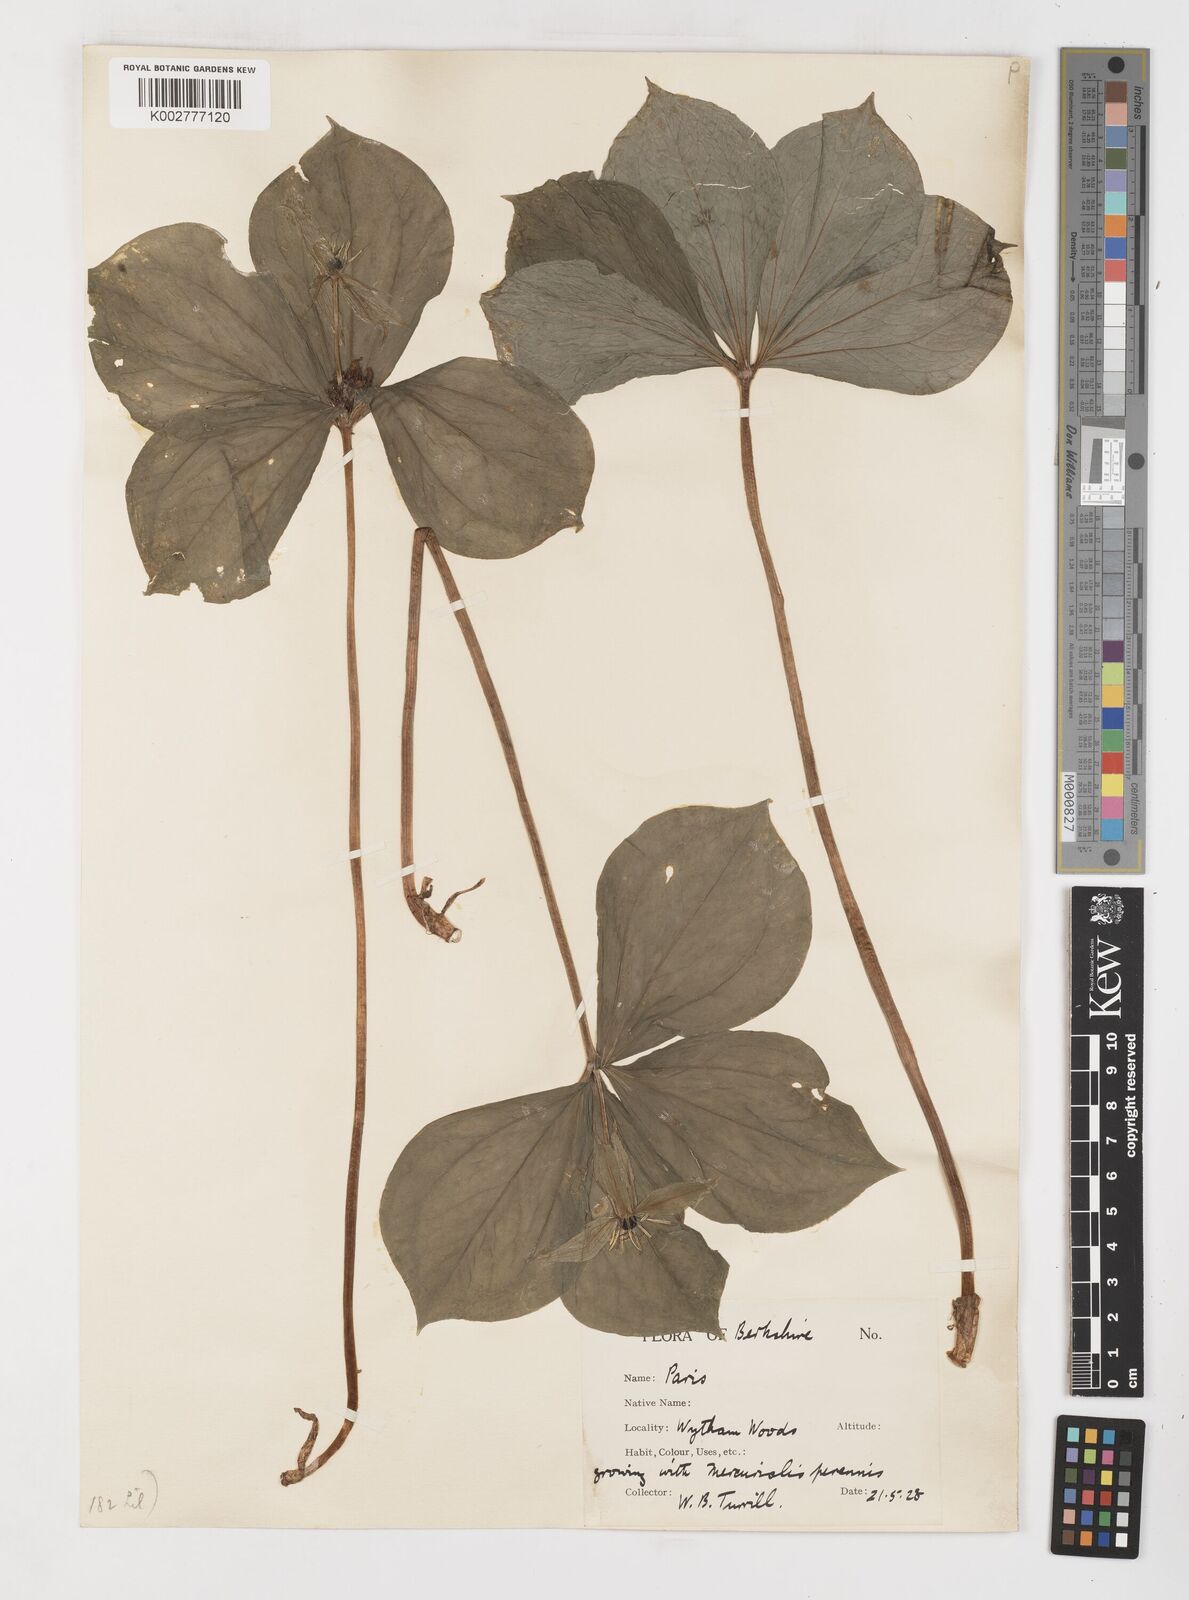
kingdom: Plantae
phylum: Tracheophyta
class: Liliopsida
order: Liliales
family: Melanthiaceae
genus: Paris
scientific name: Paris quadrifolia
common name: Herb-paris
